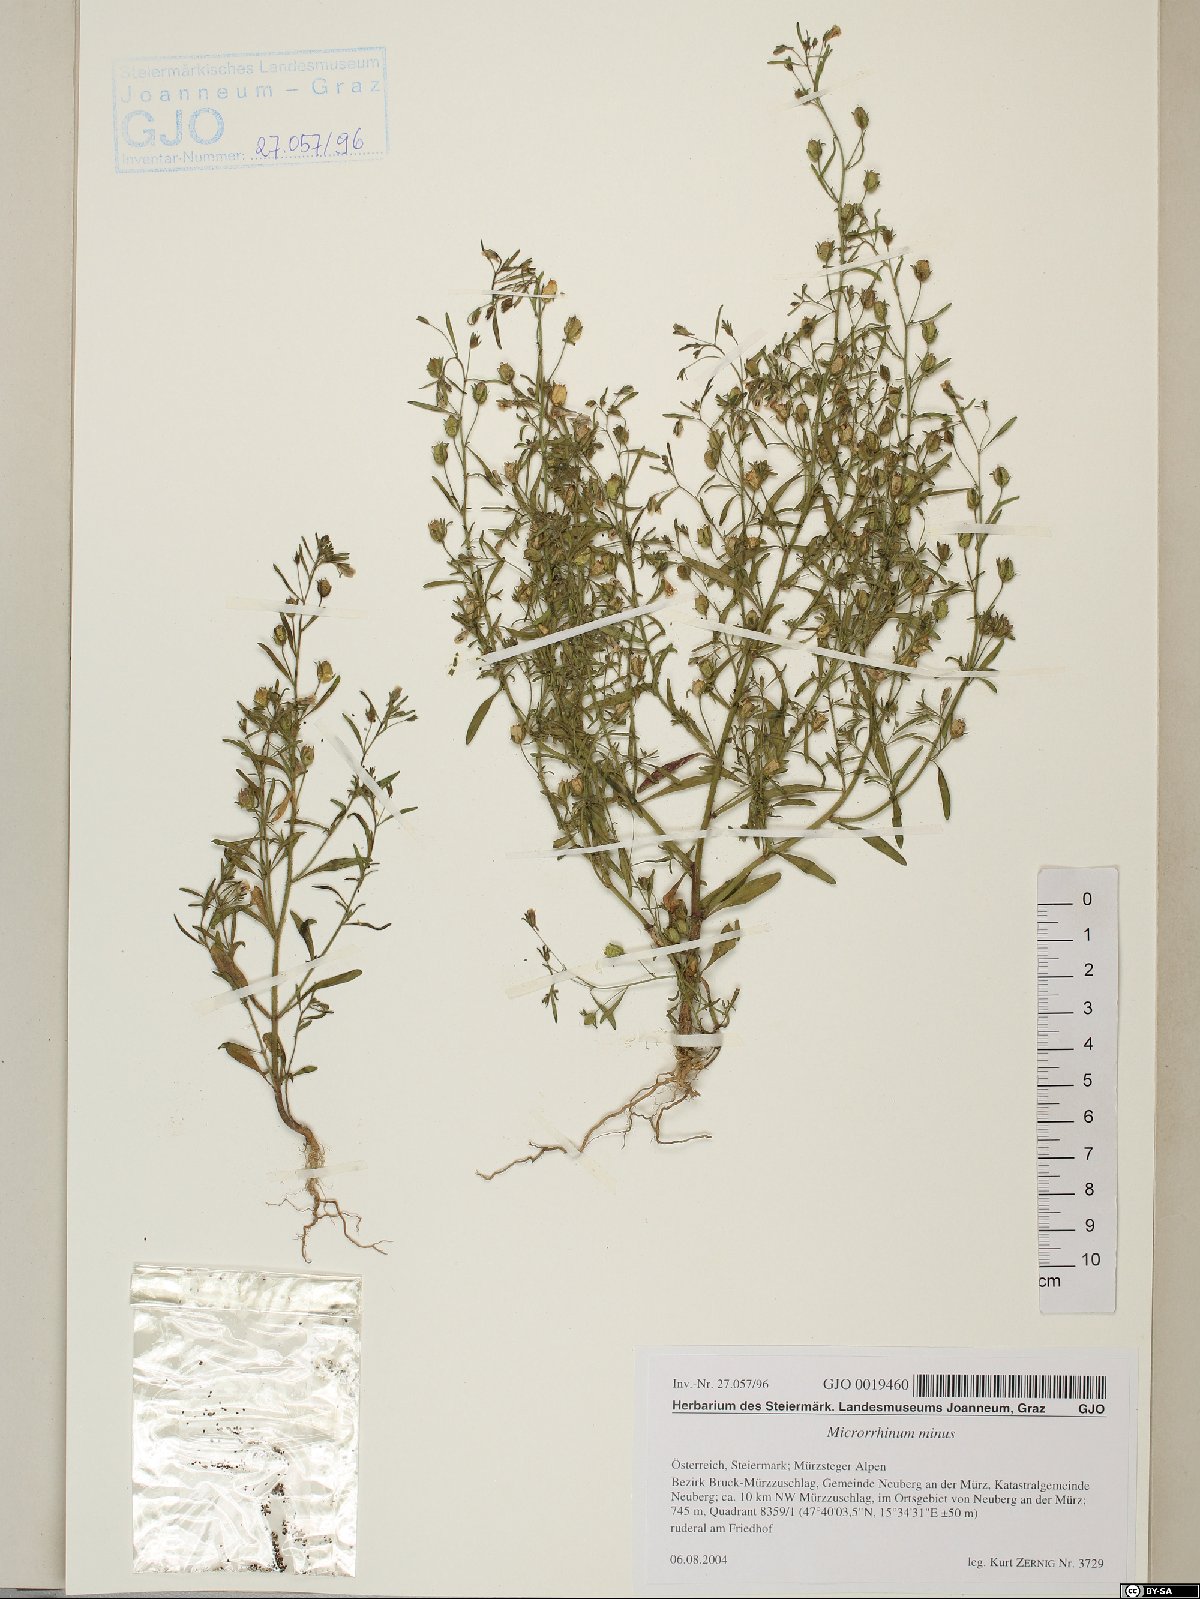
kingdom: Plantae
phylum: Tracheophyta
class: Magnoliopsida
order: Lamiales
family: Plantaginaceae
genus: Chaenorhinum
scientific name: Chaenorhinum minus
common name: Dwarf snapdragon
